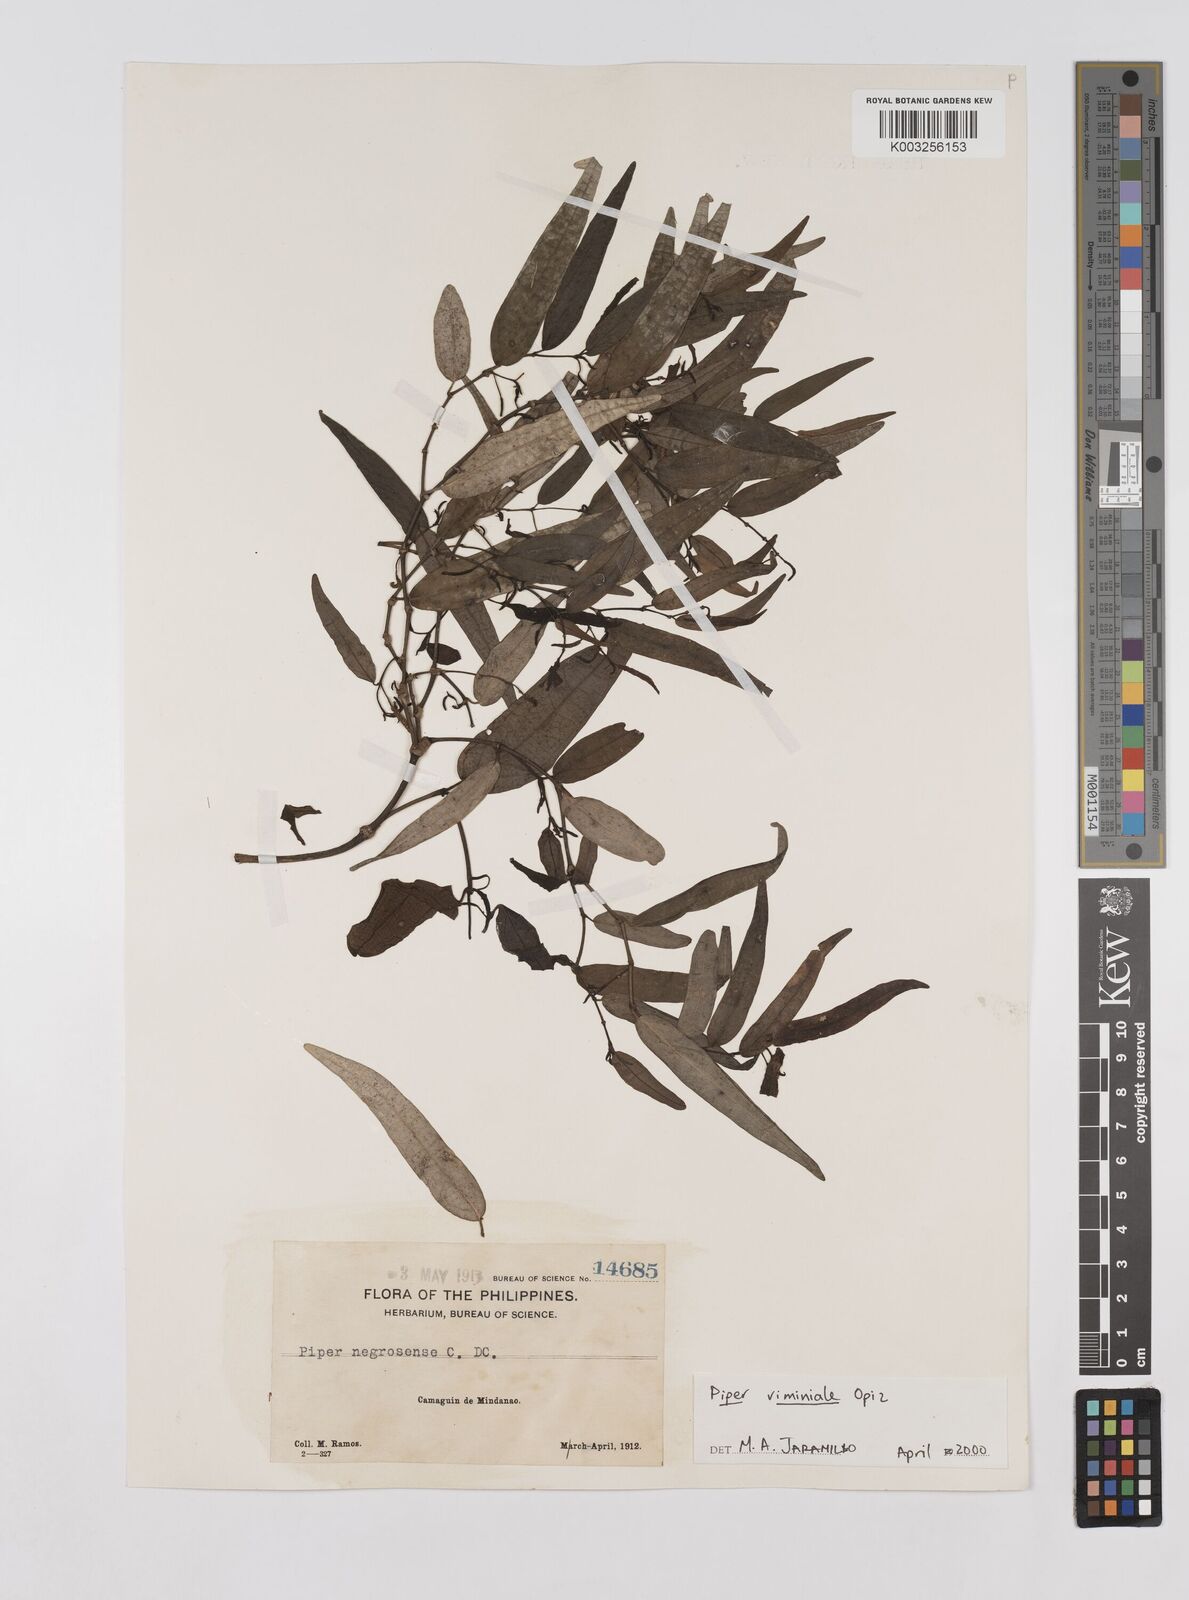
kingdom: Plantae
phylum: Tracheophyta
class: Magnoliopsida
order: Piperales
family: Piperaceae
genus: Piper
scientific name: Piper lanatum
